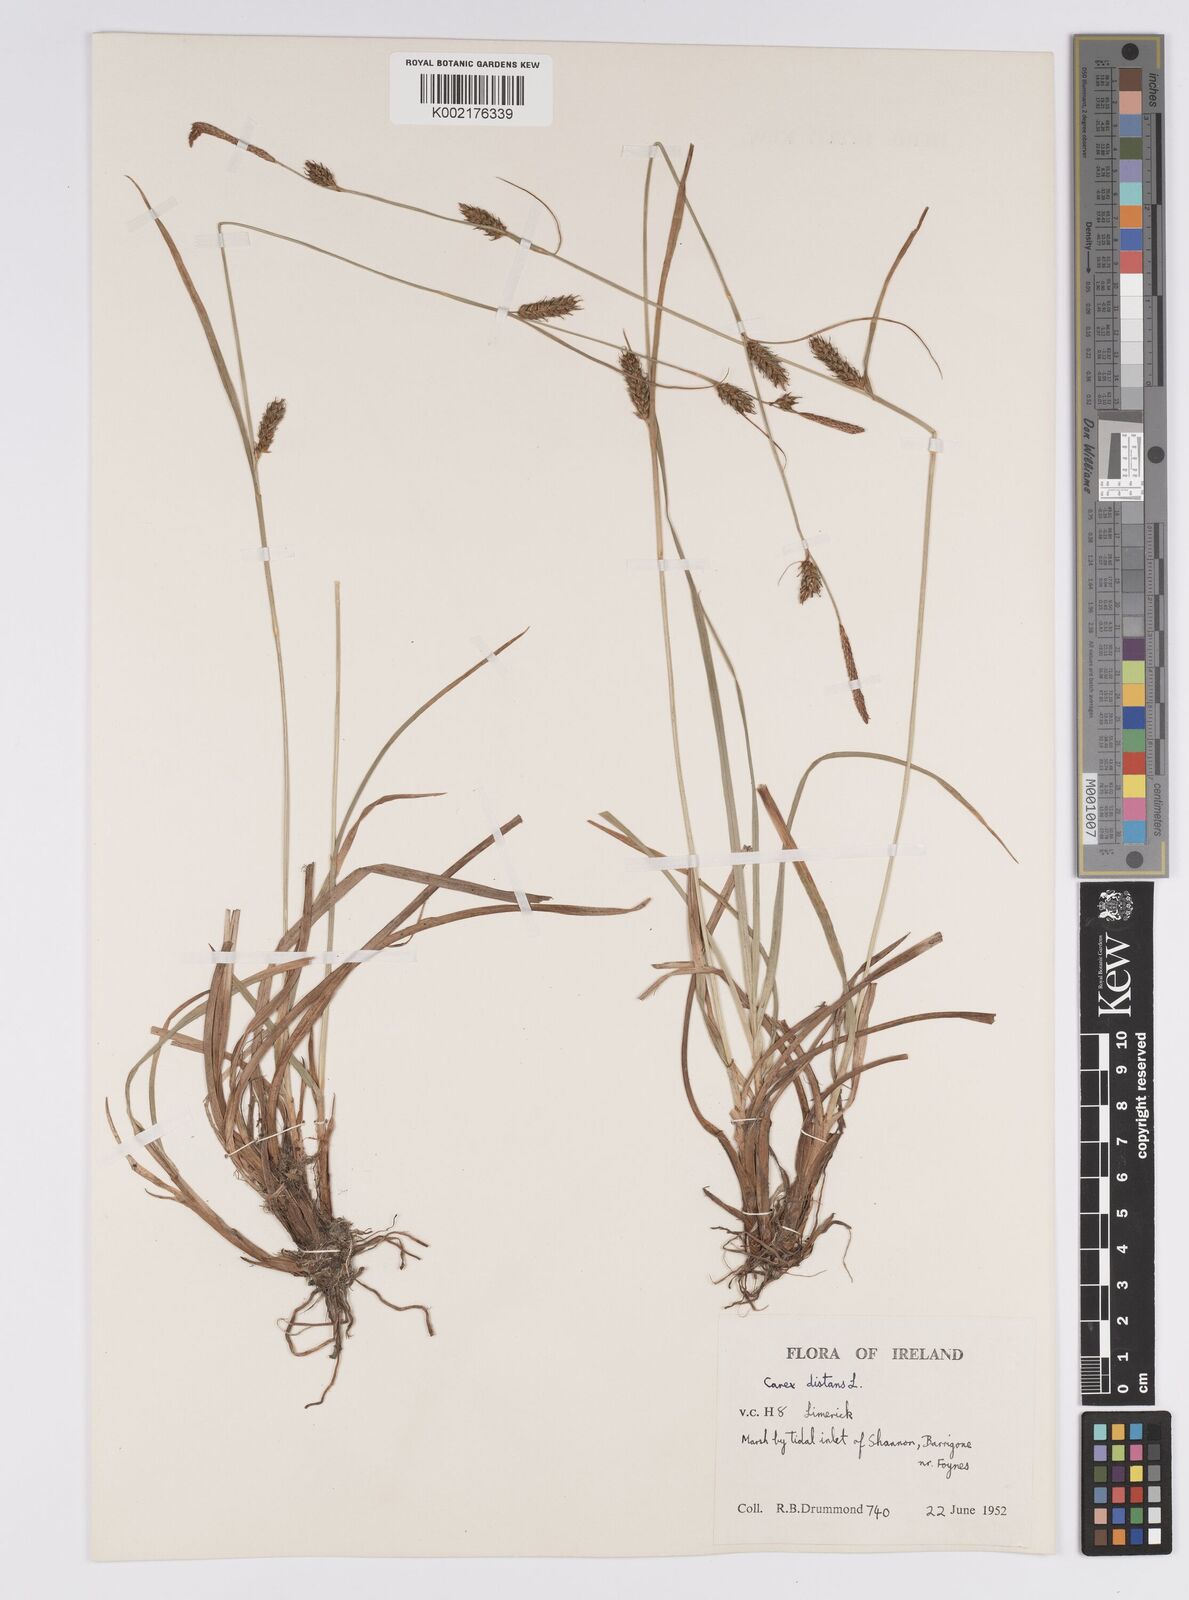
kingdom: Plantae
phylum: Tracheophyta
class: Liliopsida
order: Poales
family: Cyperaceae
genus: Carex
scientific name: Carex distans
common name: Distant sedge
